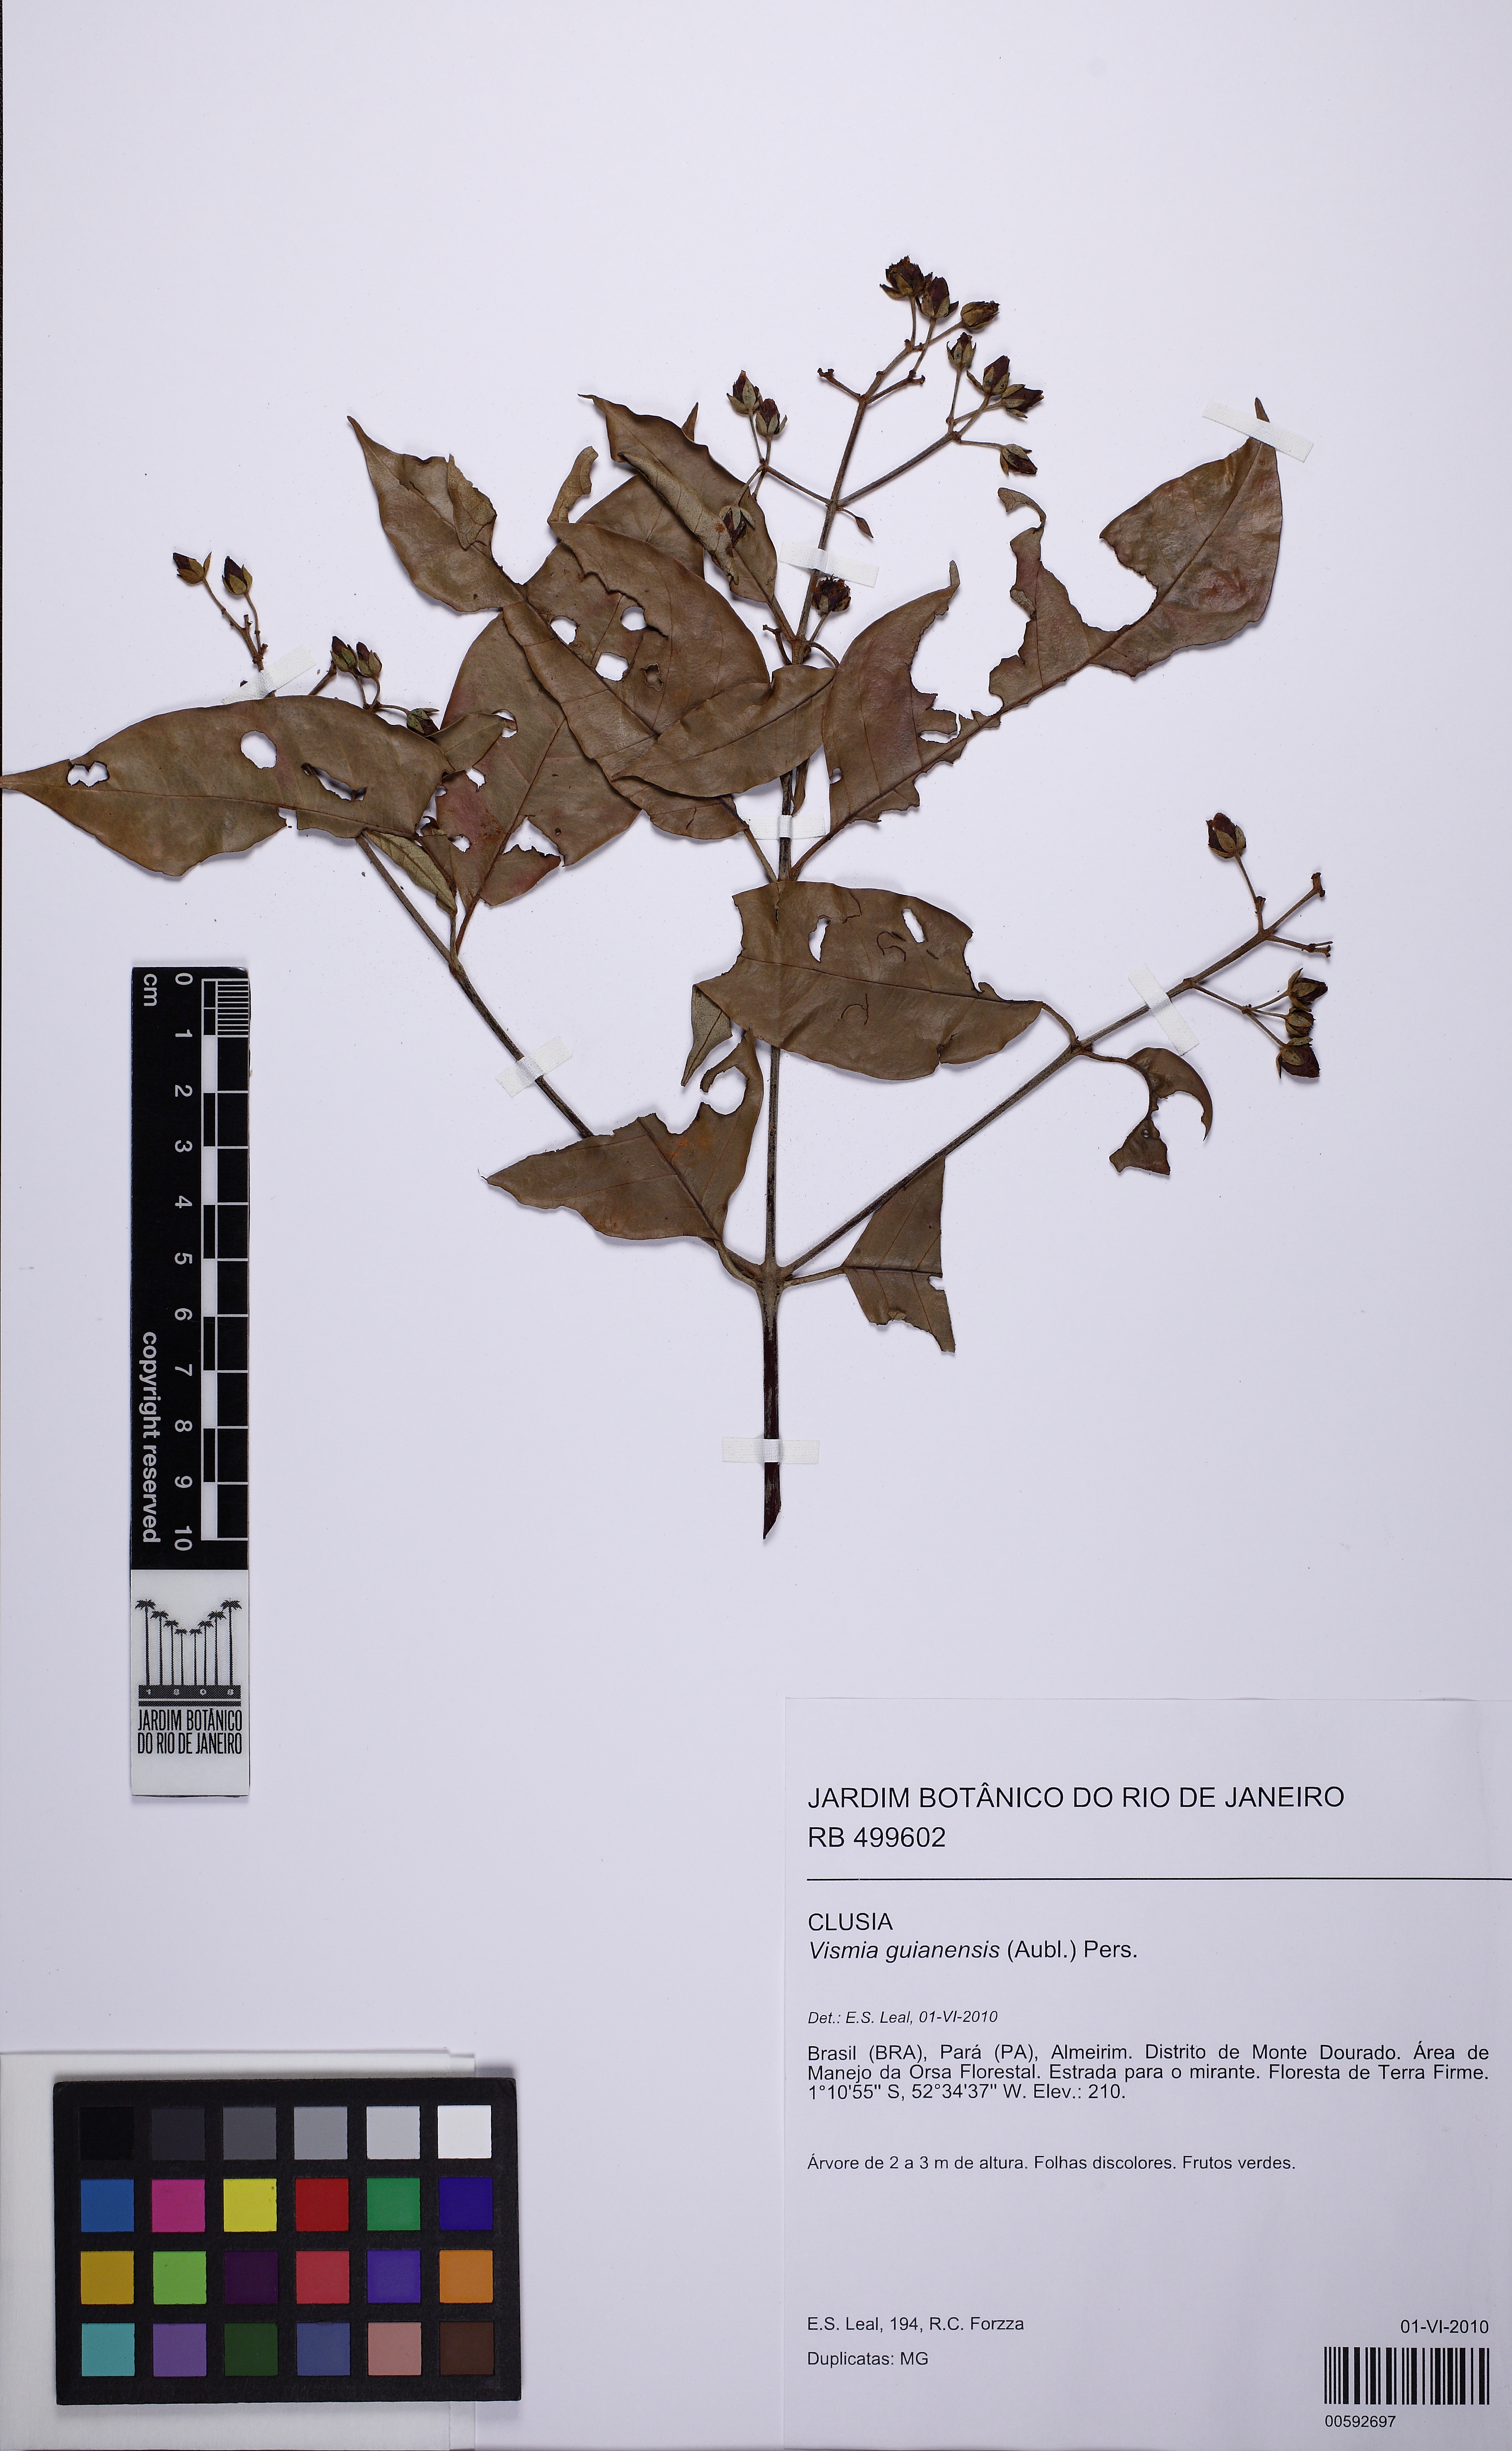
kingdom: Plantae
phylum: Tracheophyta
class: Magnoliopsida
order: Malpighiales
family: Hypericaceae
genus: Vismia
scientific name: Vismia gracilis
